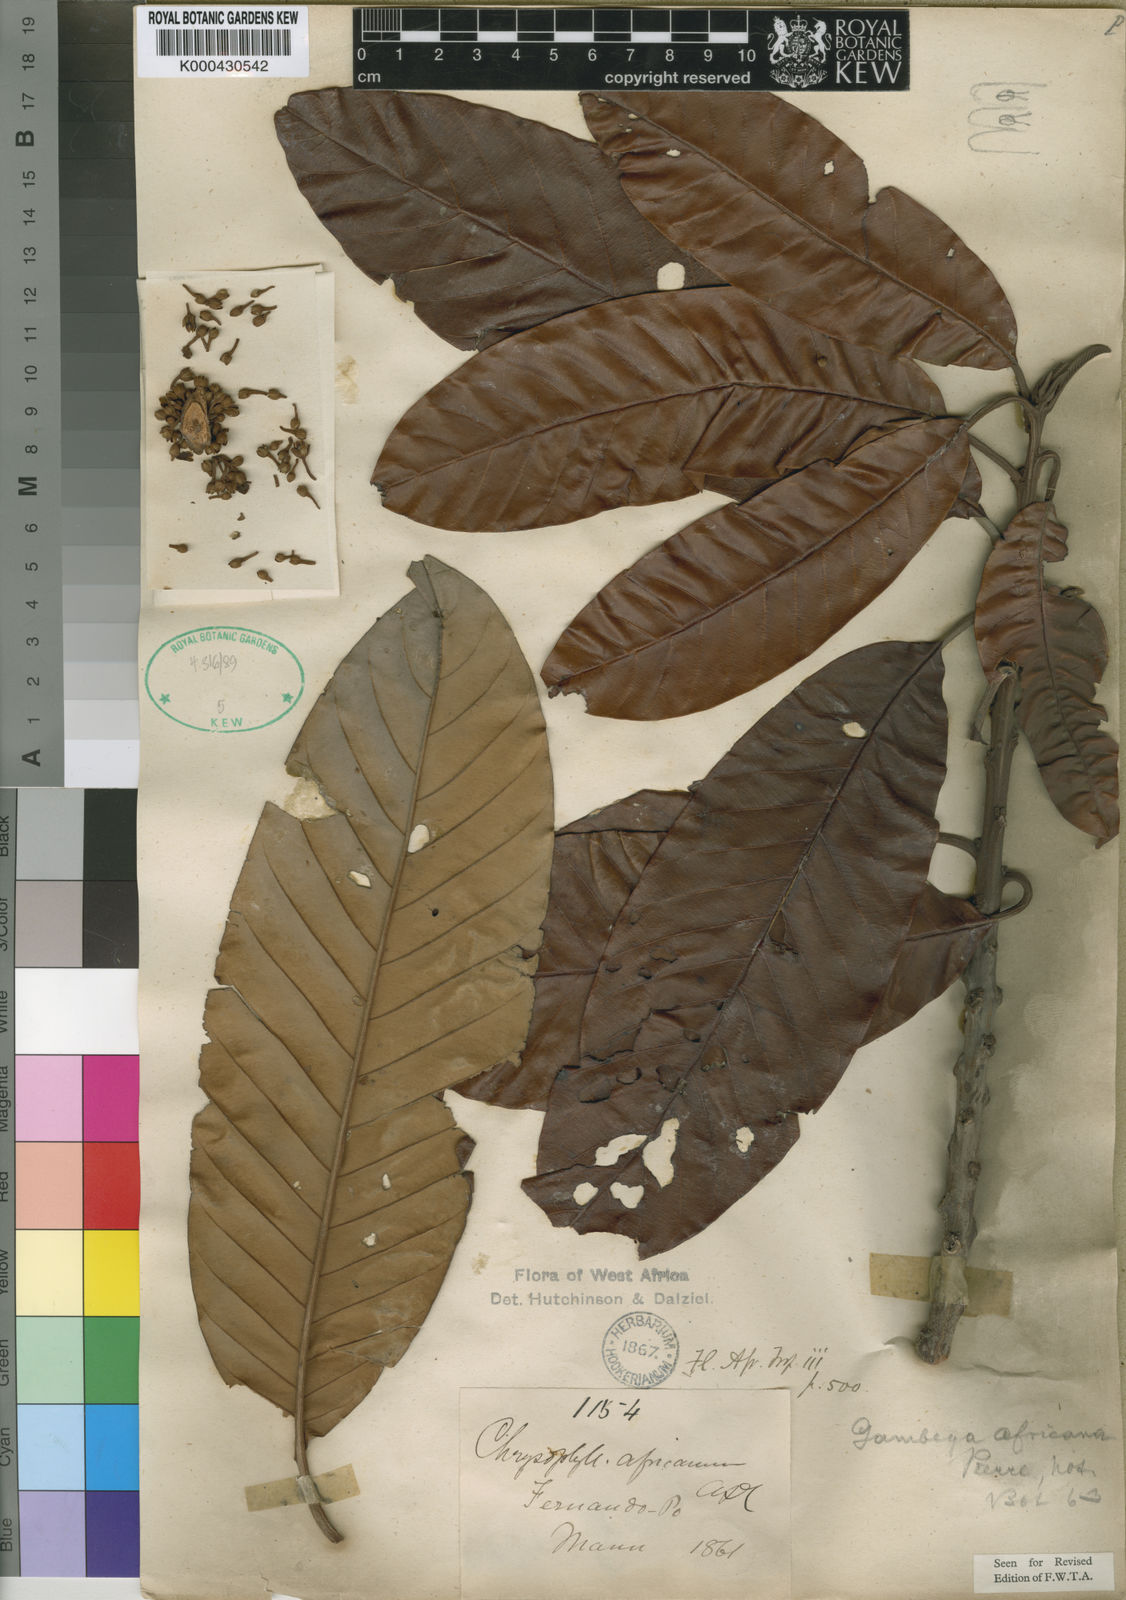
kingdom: Plantae
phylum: Tracheophyta
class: Magnoliopsida
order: Ericales
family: Sapotaceae
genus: Gambeya
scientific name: Gambeya africana
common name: African star apple
